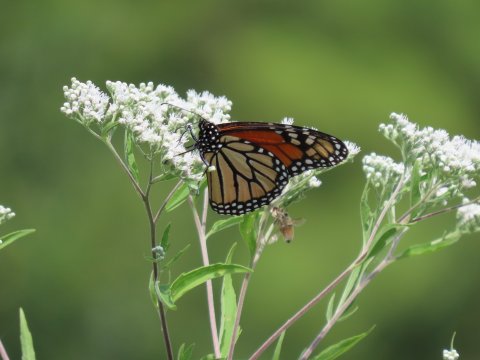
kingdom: Animalia
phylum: Arthropoda
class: Insecta
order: Lepidoptera
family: Nymphalidae
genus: Danaus
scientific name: Danaus plexippus
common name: Monarch
